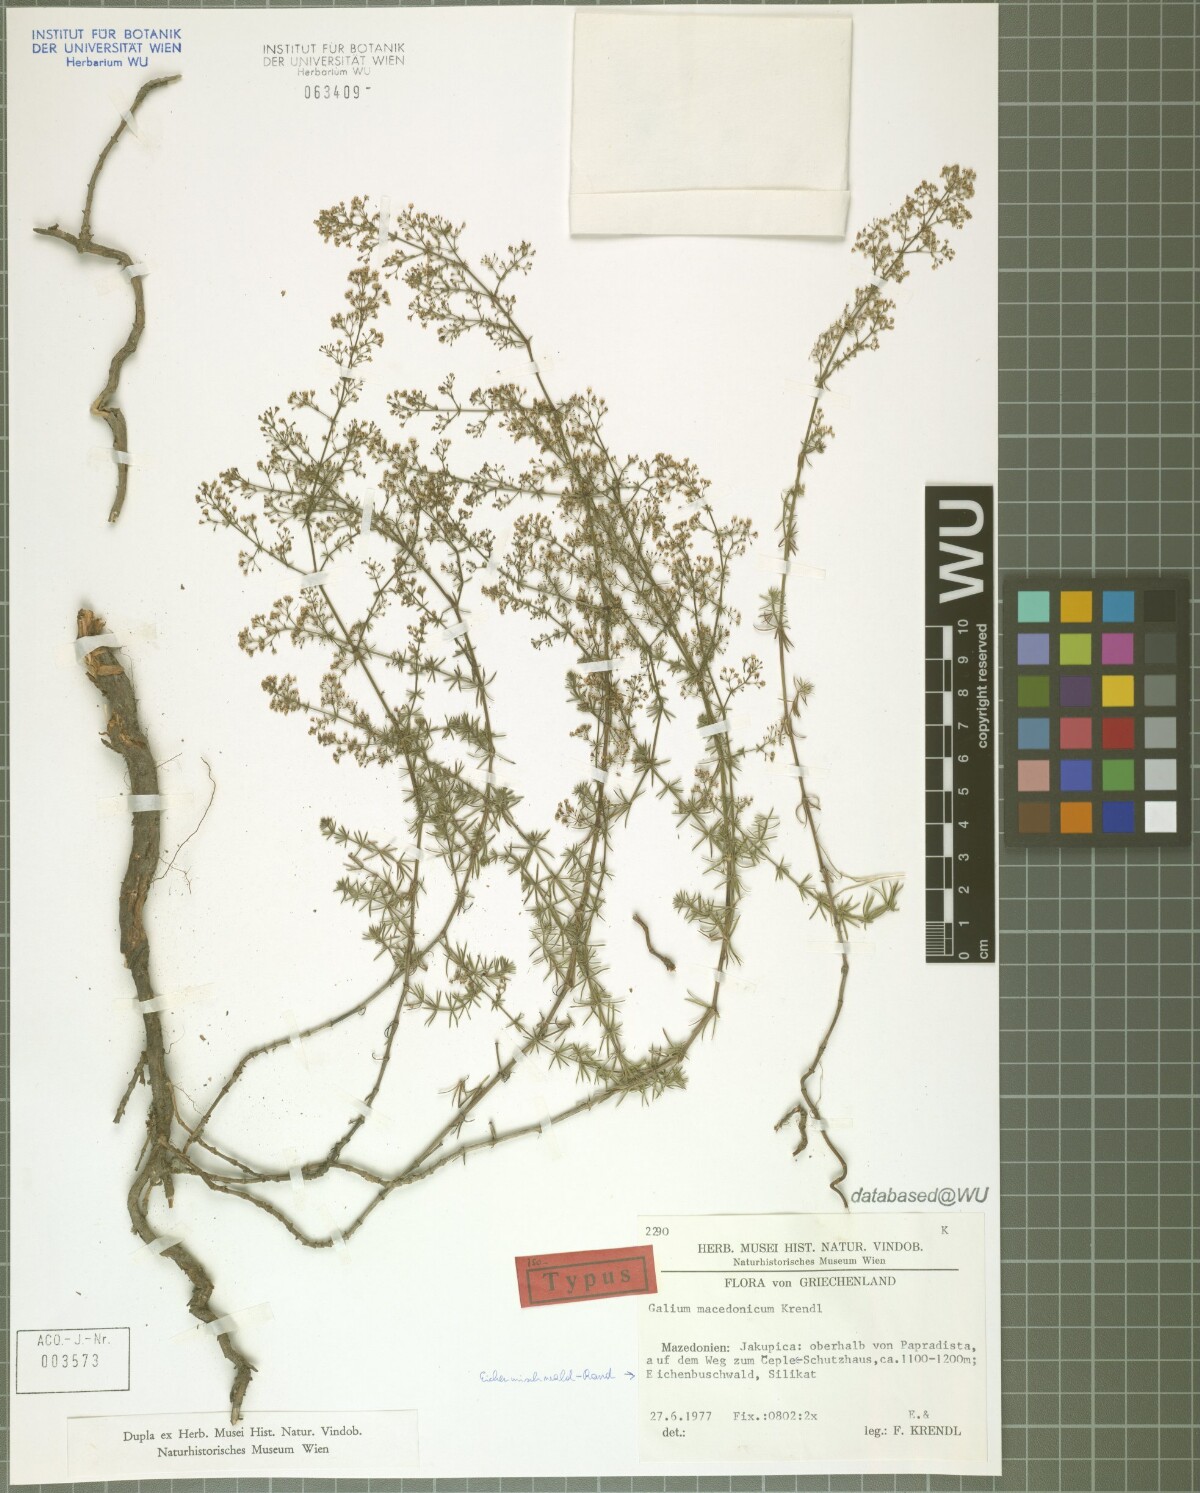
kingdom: Plantae
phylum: Tracheophyta
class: Magnoliopsida
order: Gentianales
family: Rubiaceae
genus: Galium
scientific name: Galium macedonicum
